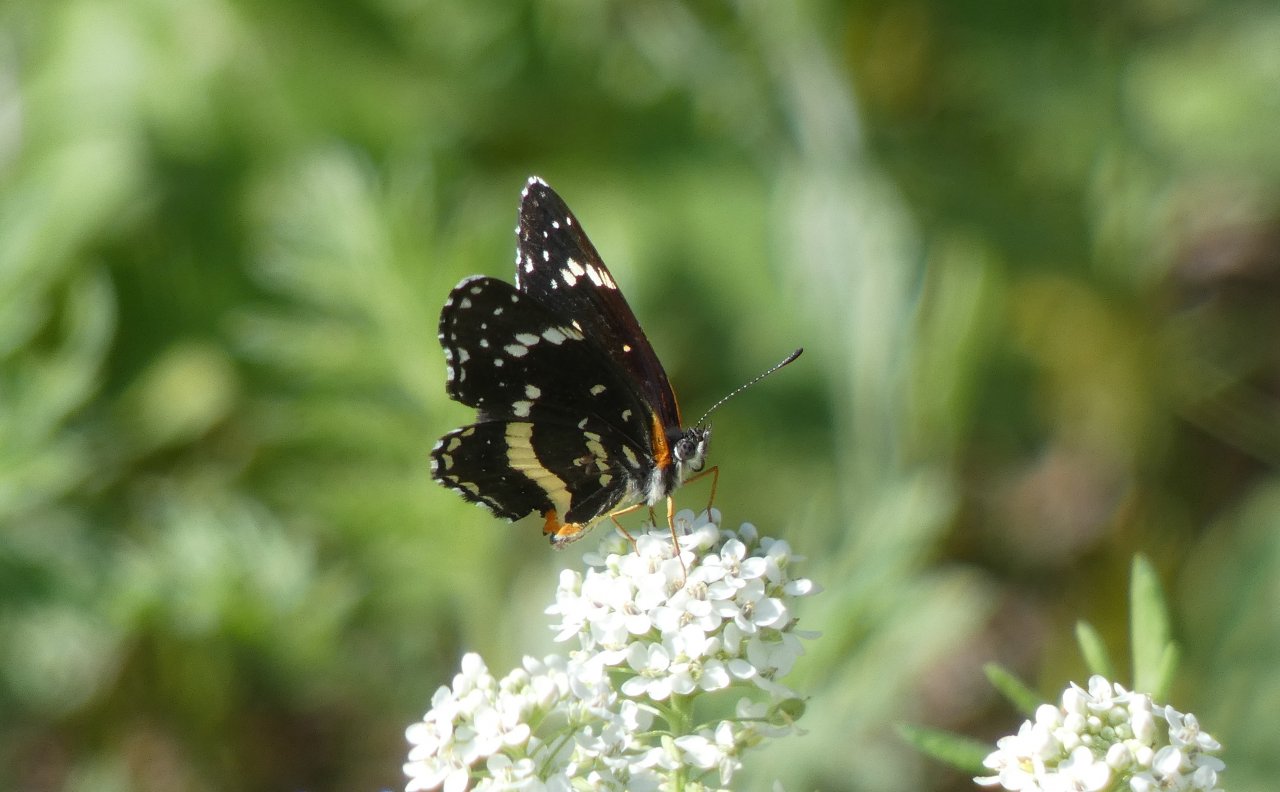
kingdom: Animalia
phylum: Arthropoda
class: Insecta
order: Lepidoptera
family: Nymphalidae
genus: Chlosyne
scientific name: Chlosyne lacinia
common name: Bordered Patch
